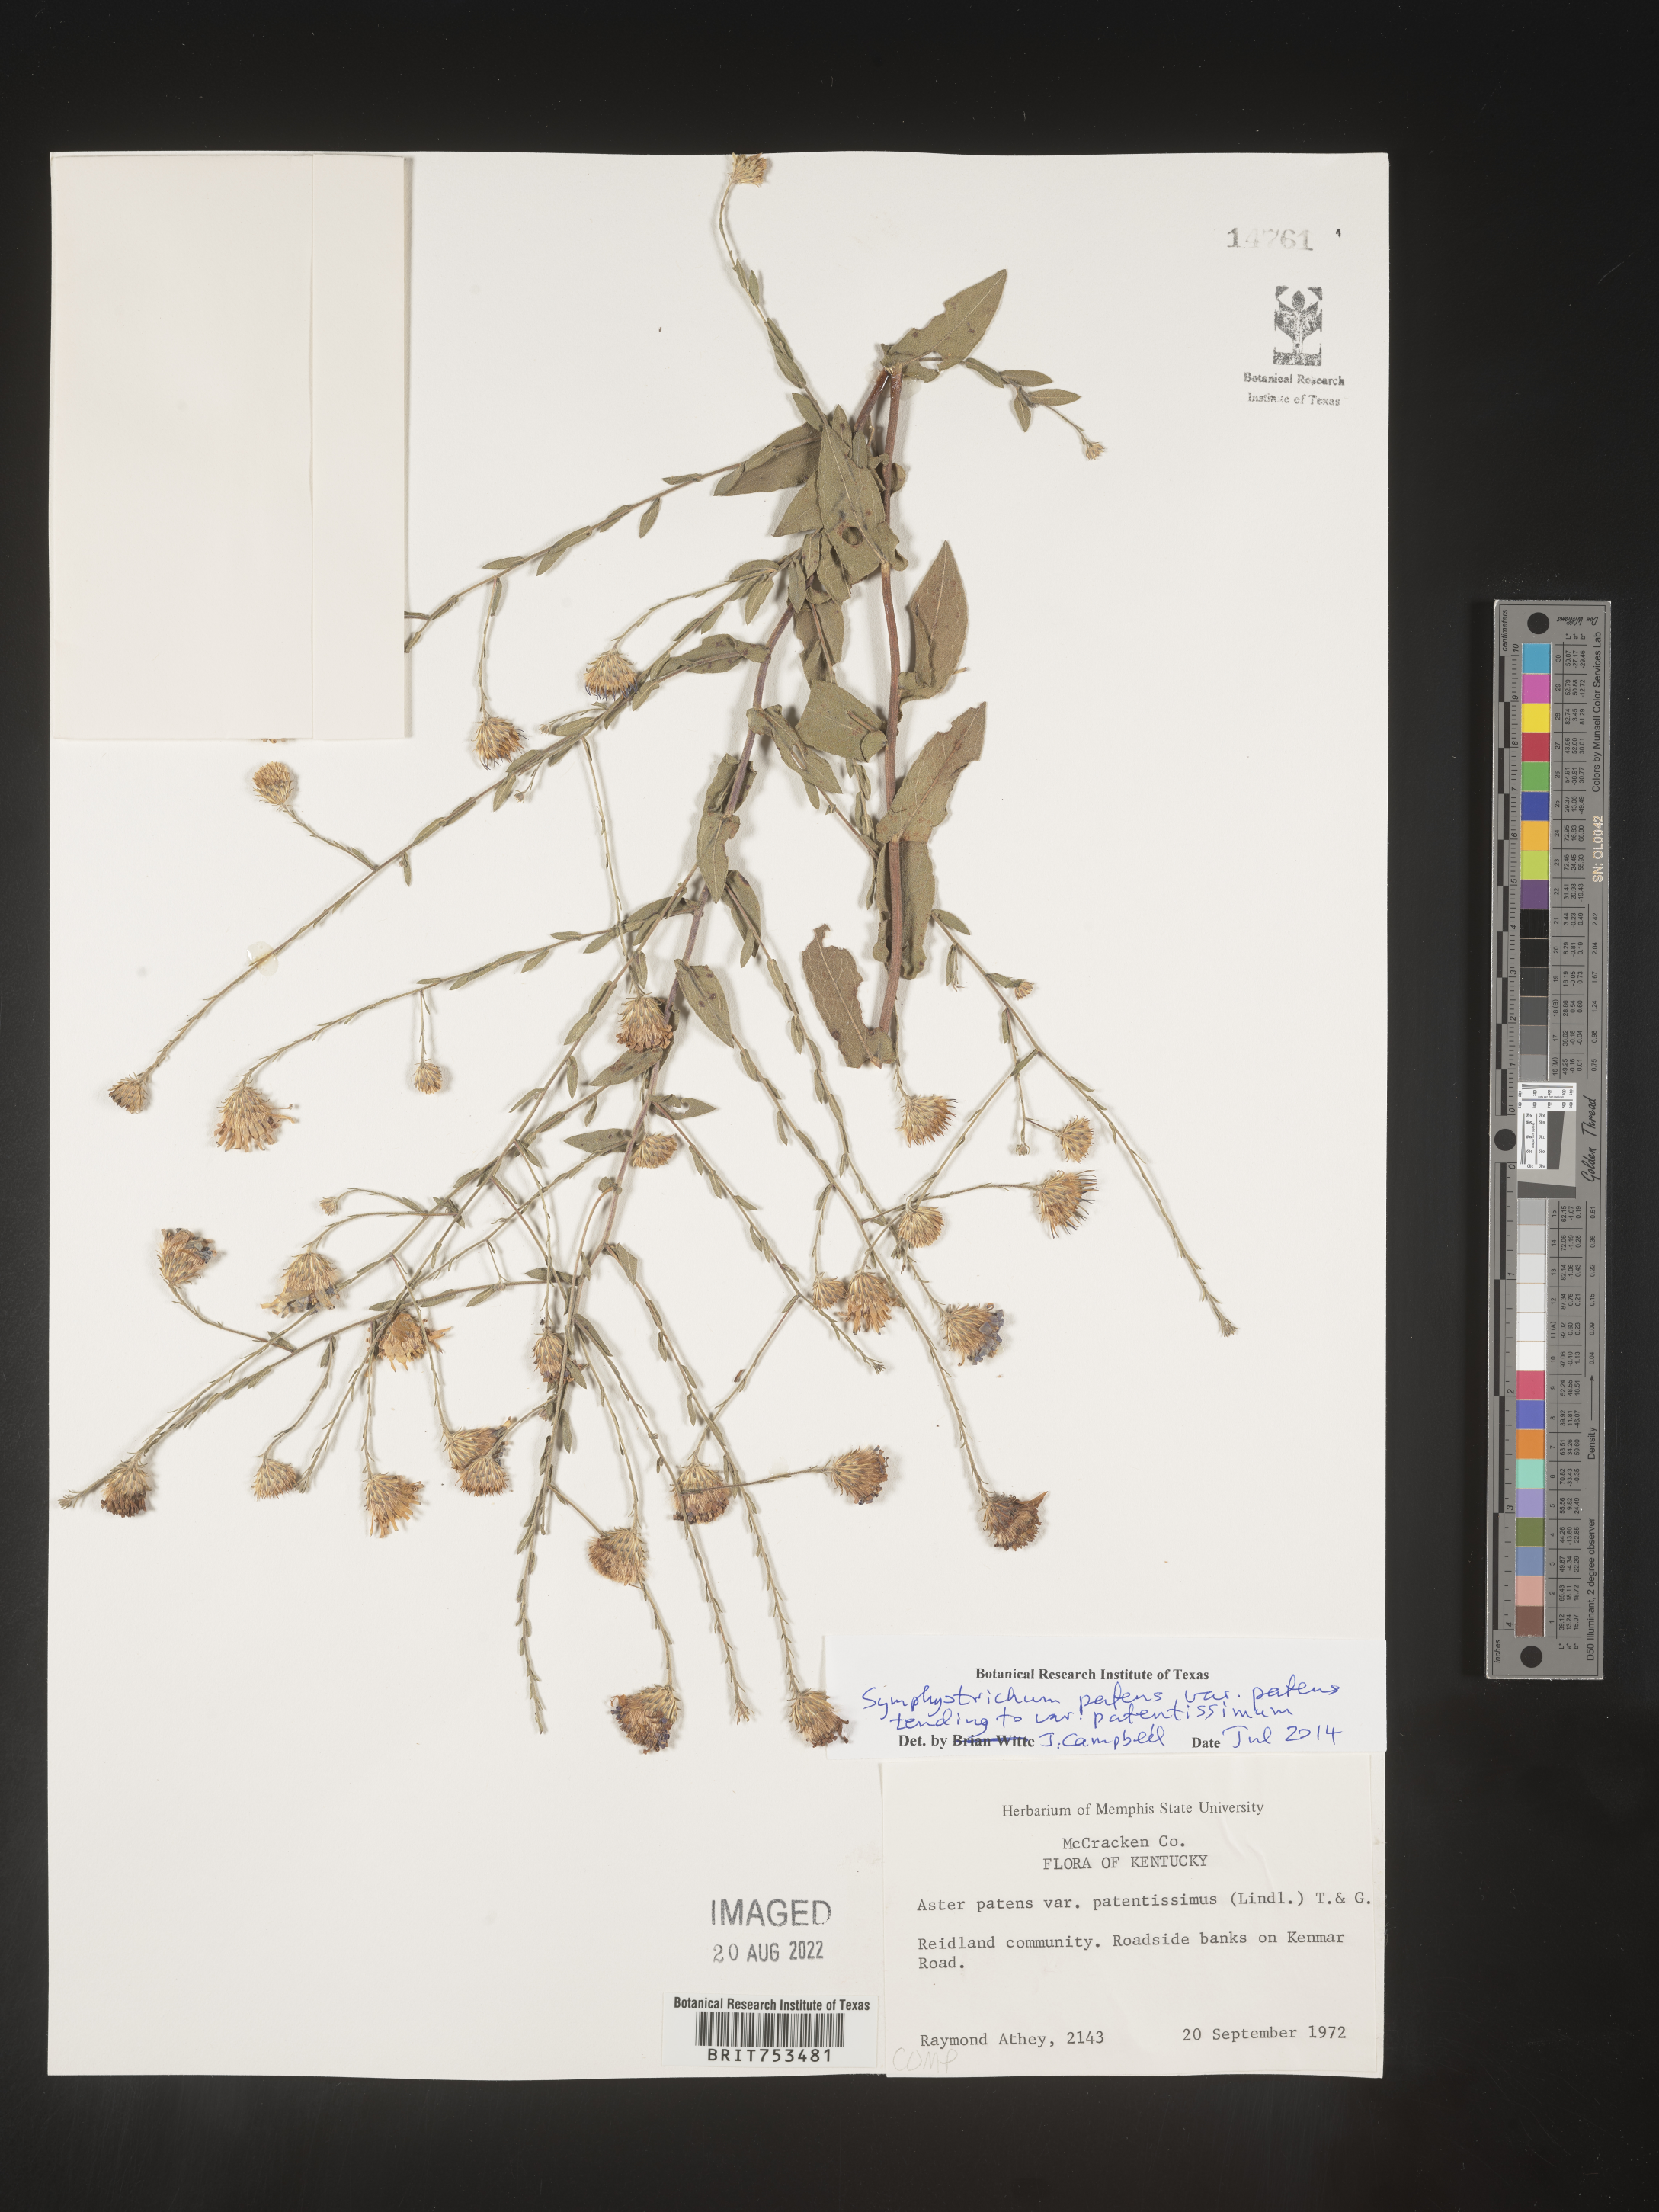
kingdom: Plantae
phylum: Tracheophyta
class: Magnoliopsida
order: Asterales
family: Asteraceae
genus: Symphyotrichum
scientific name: Symphyotrichum patens
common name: Late purple aster
